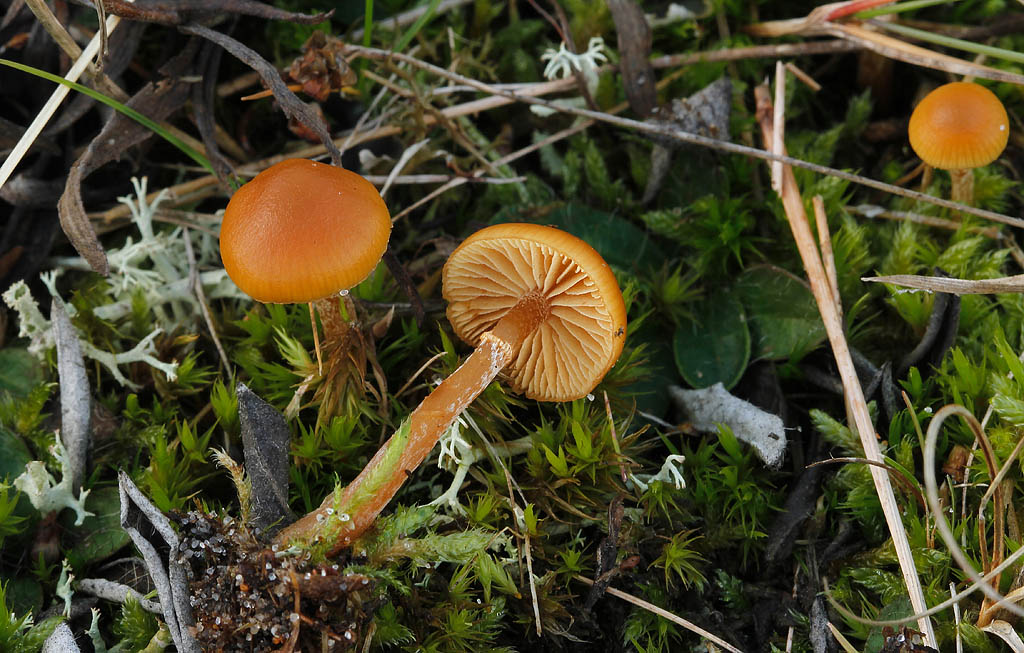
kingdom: Fungi
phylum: Basidiomycota
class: Agaricomycetes
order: Agaricales
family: Hymenogastraceae
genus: Galerina
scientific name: Galerina
